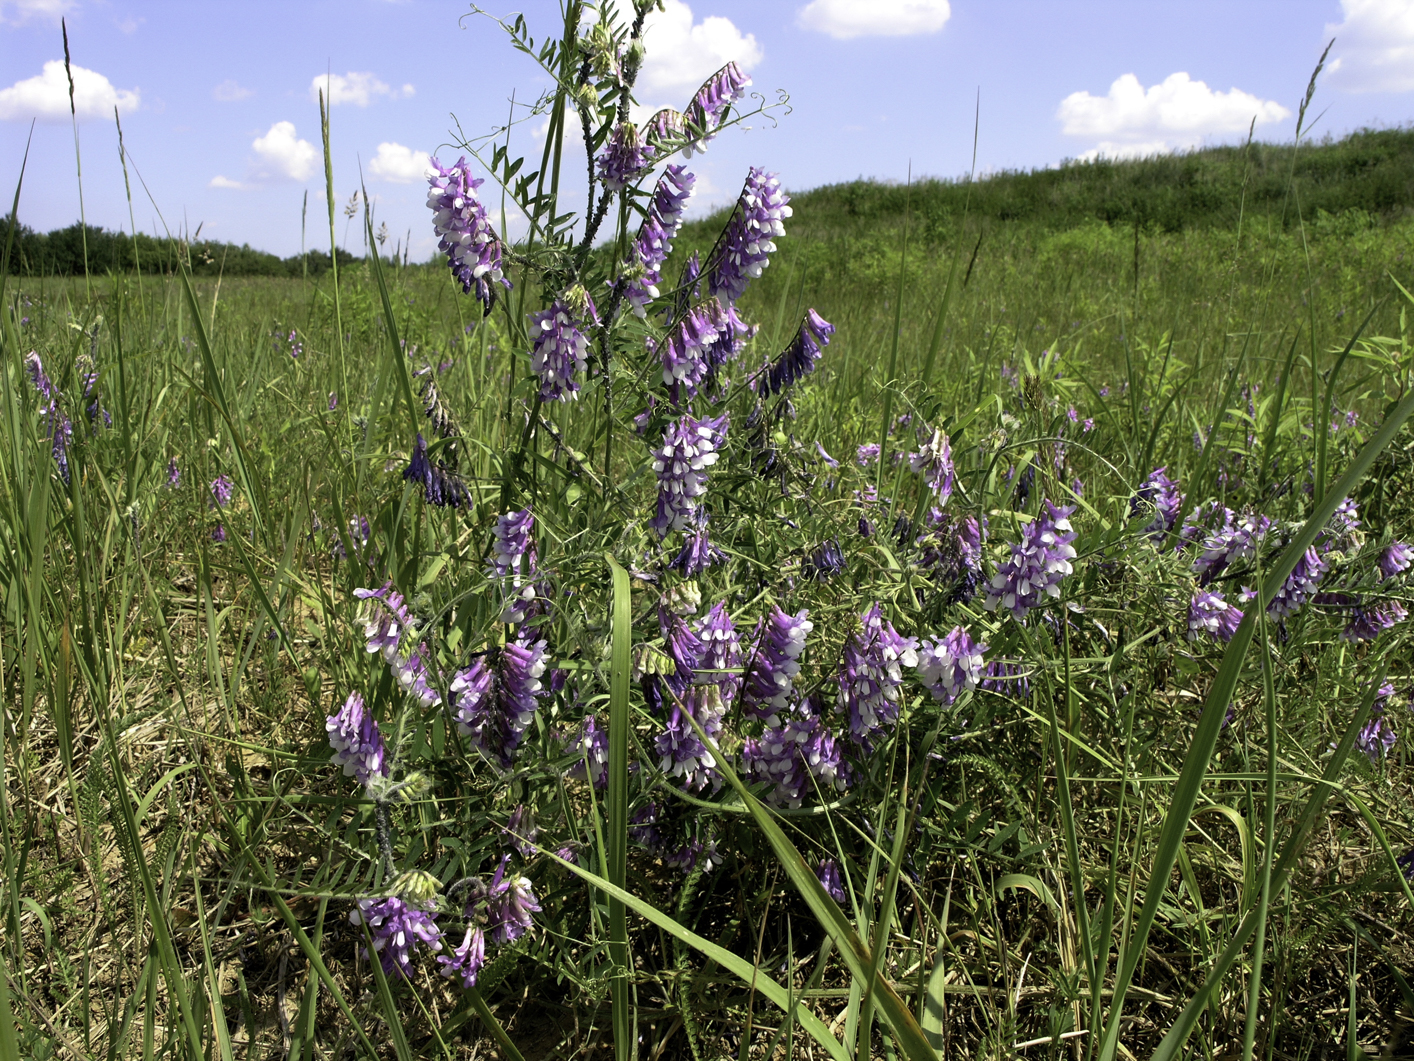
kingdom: Plantae
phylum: Tracheophyta
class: Magnoliopsida
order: Fabales
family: Fabaceae
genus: Vicia
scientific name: Vicia villosa
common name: Fodder vetch
